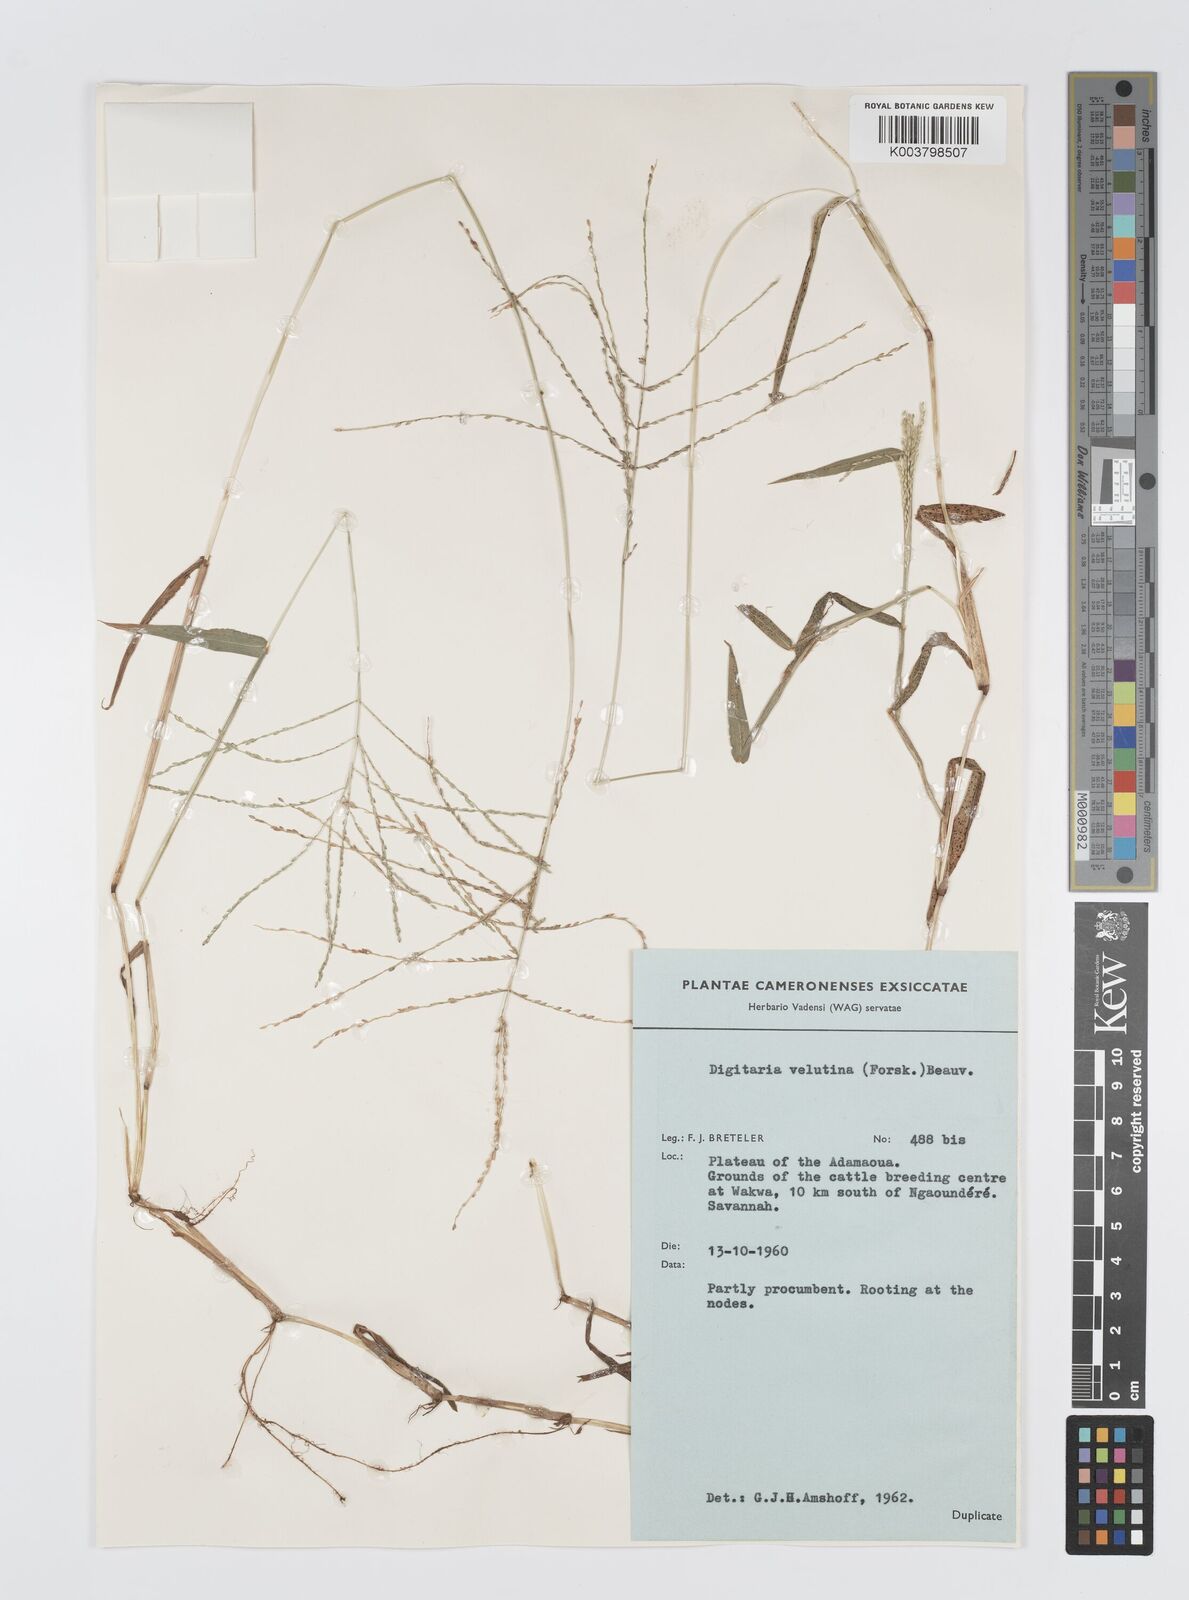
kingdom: Plantae
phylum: Tracheophyta
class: Liliopsida
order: Poales
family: Poaceae
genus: Digitaria
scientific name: Digitaria abyssinica
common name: African couchgrass
